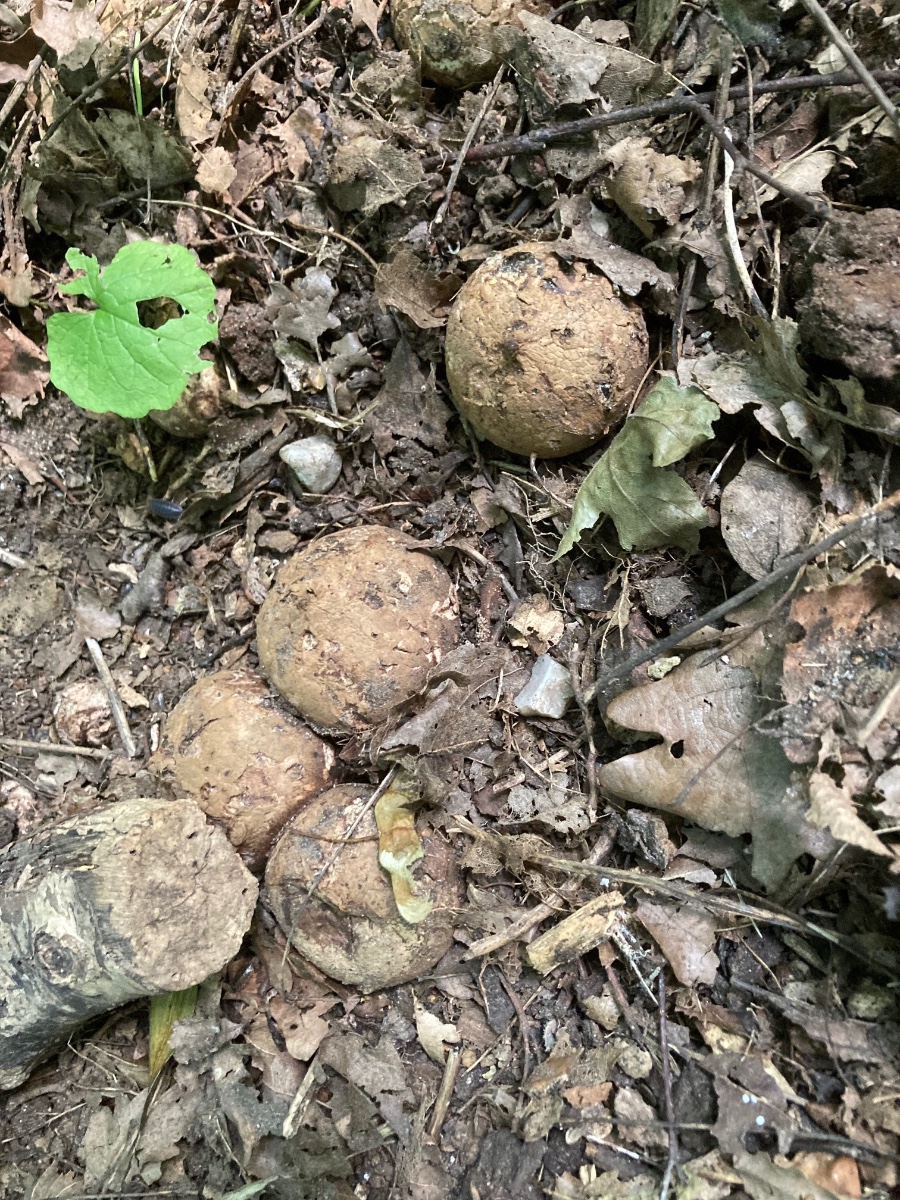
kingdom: Fungi
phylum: Basidiomycota
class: Agaricomycetes
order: Geastrales
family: Geastraceae
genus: Geastrum
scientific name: Geastrum michelianum
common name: kødet stjernebold
